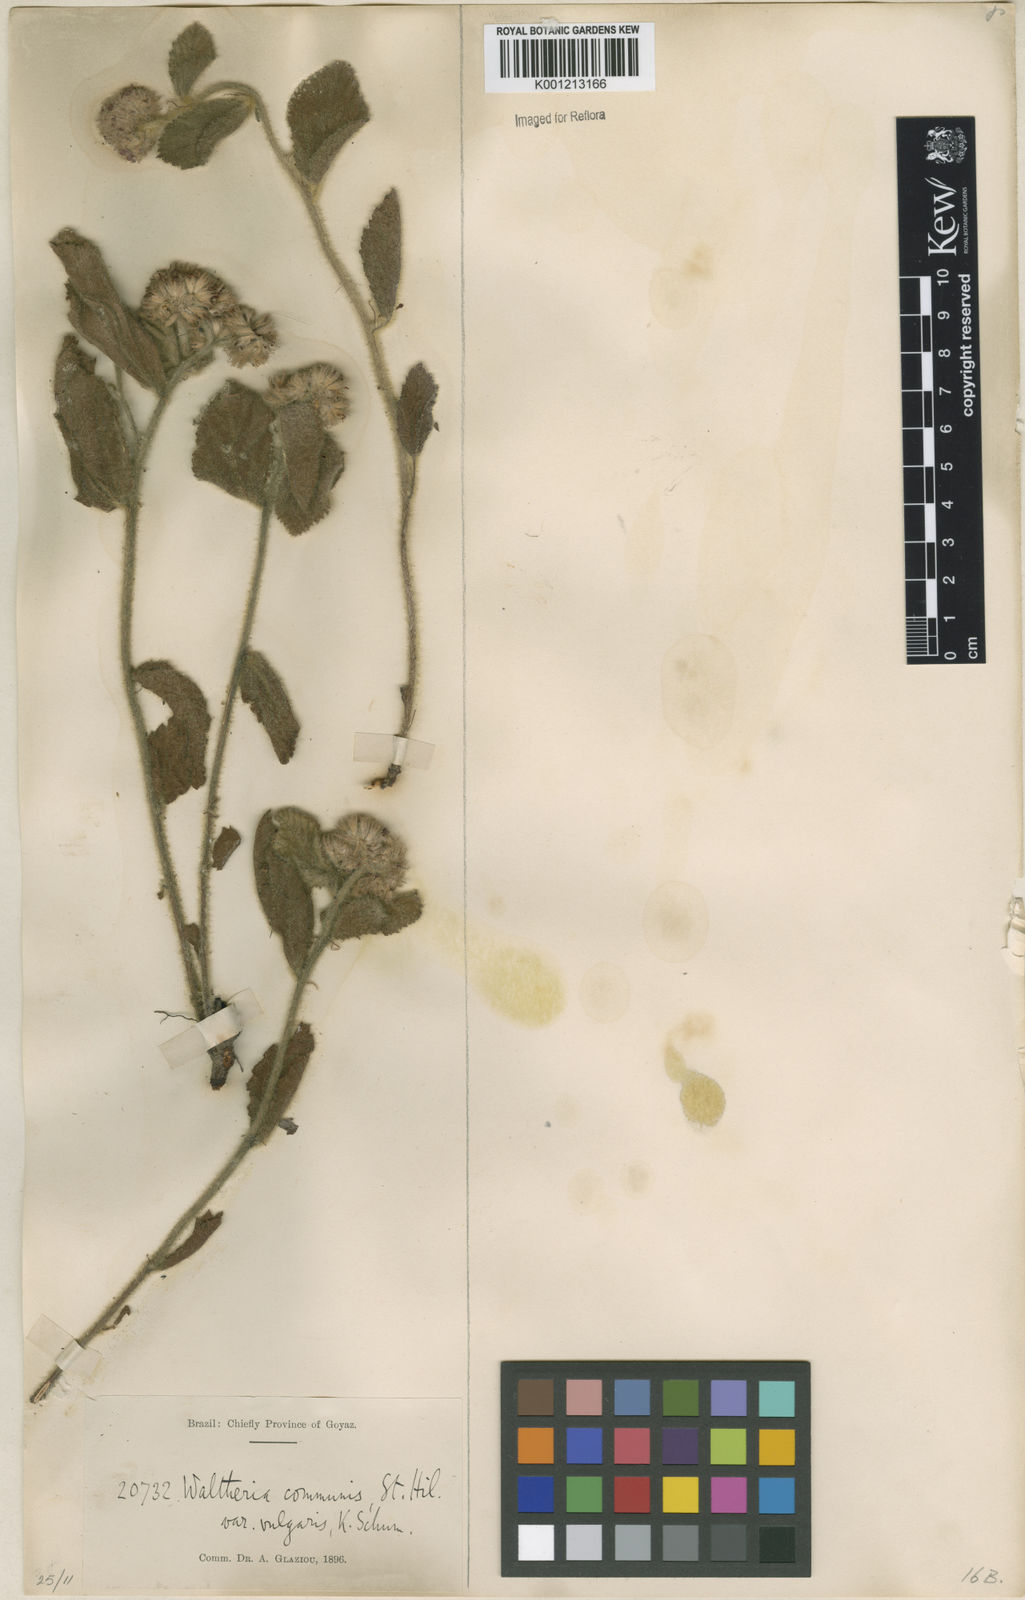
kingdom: Plantae
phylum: Tracheophyta
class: Magnoliopsida
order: Malvales
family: Malvaceae
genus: Waltheria
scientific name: Waltheria communis
